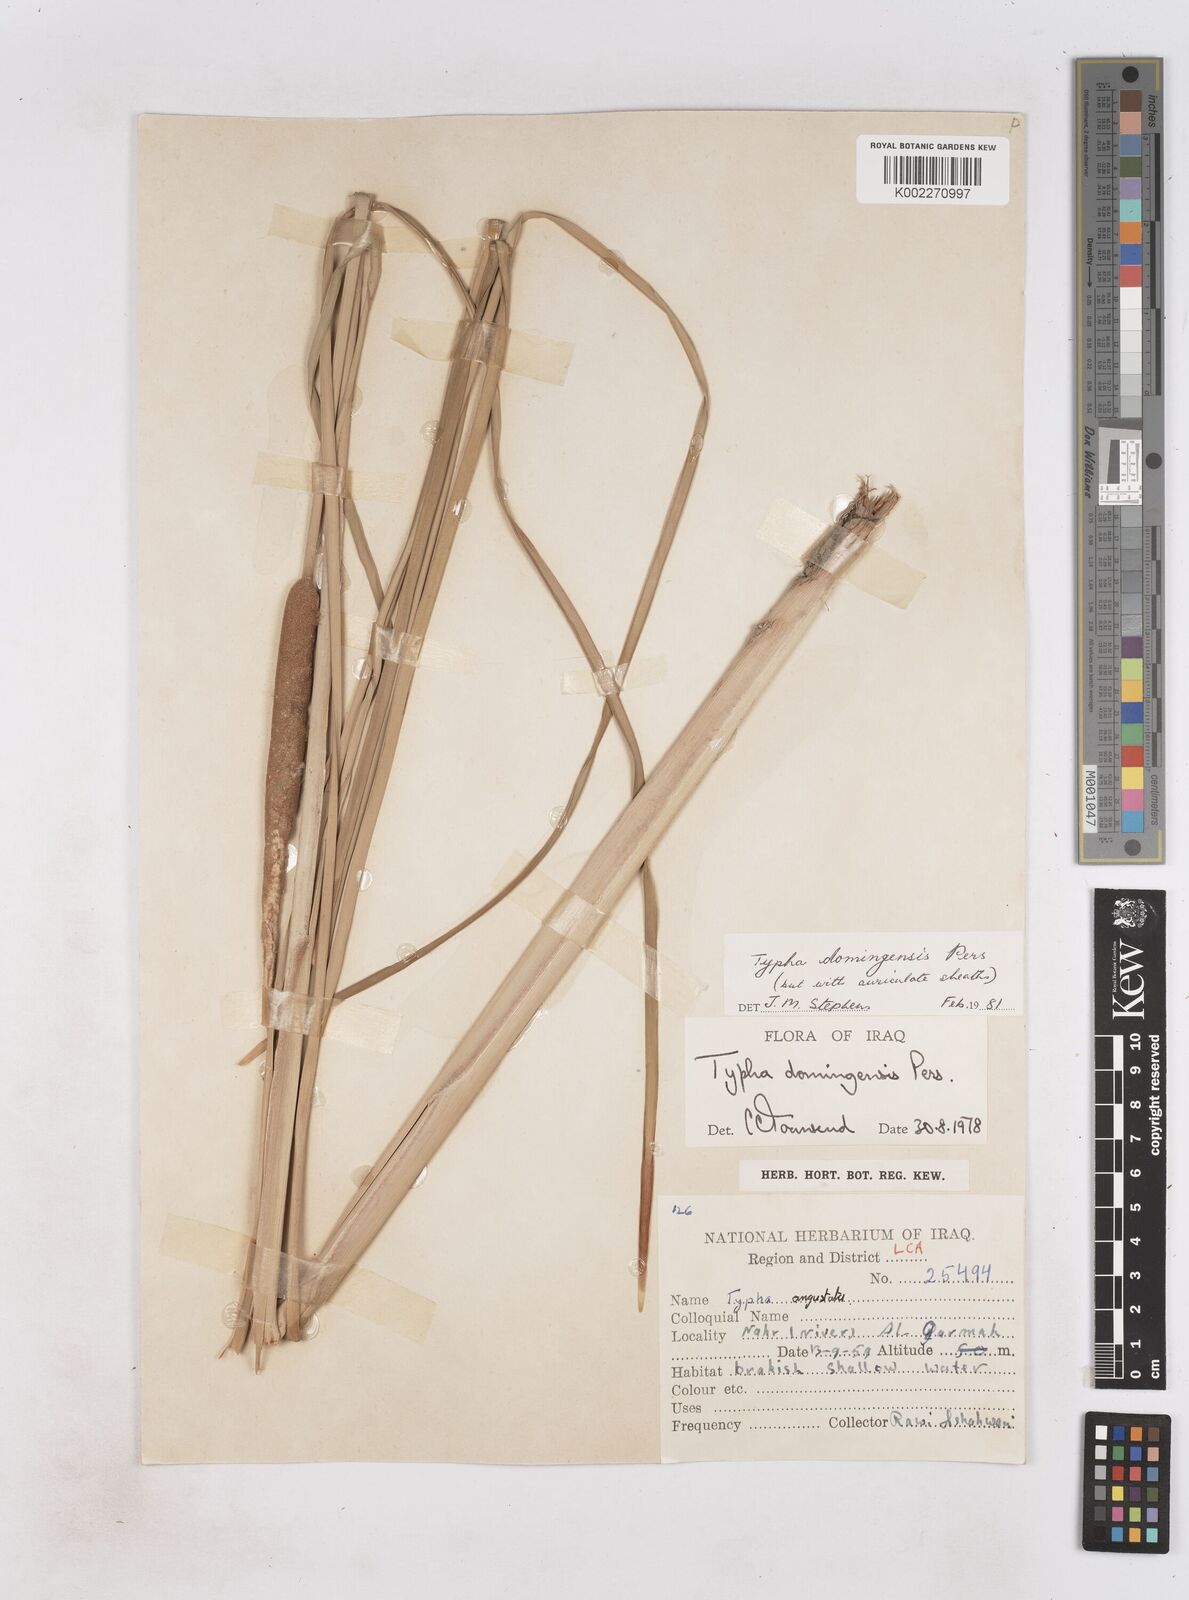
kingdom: Plantae
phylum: Tracheophyta
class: Liliopsida
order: Poales
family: Typhaceae
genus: Typha
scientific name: Typha domingensis
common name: Southern cattail
